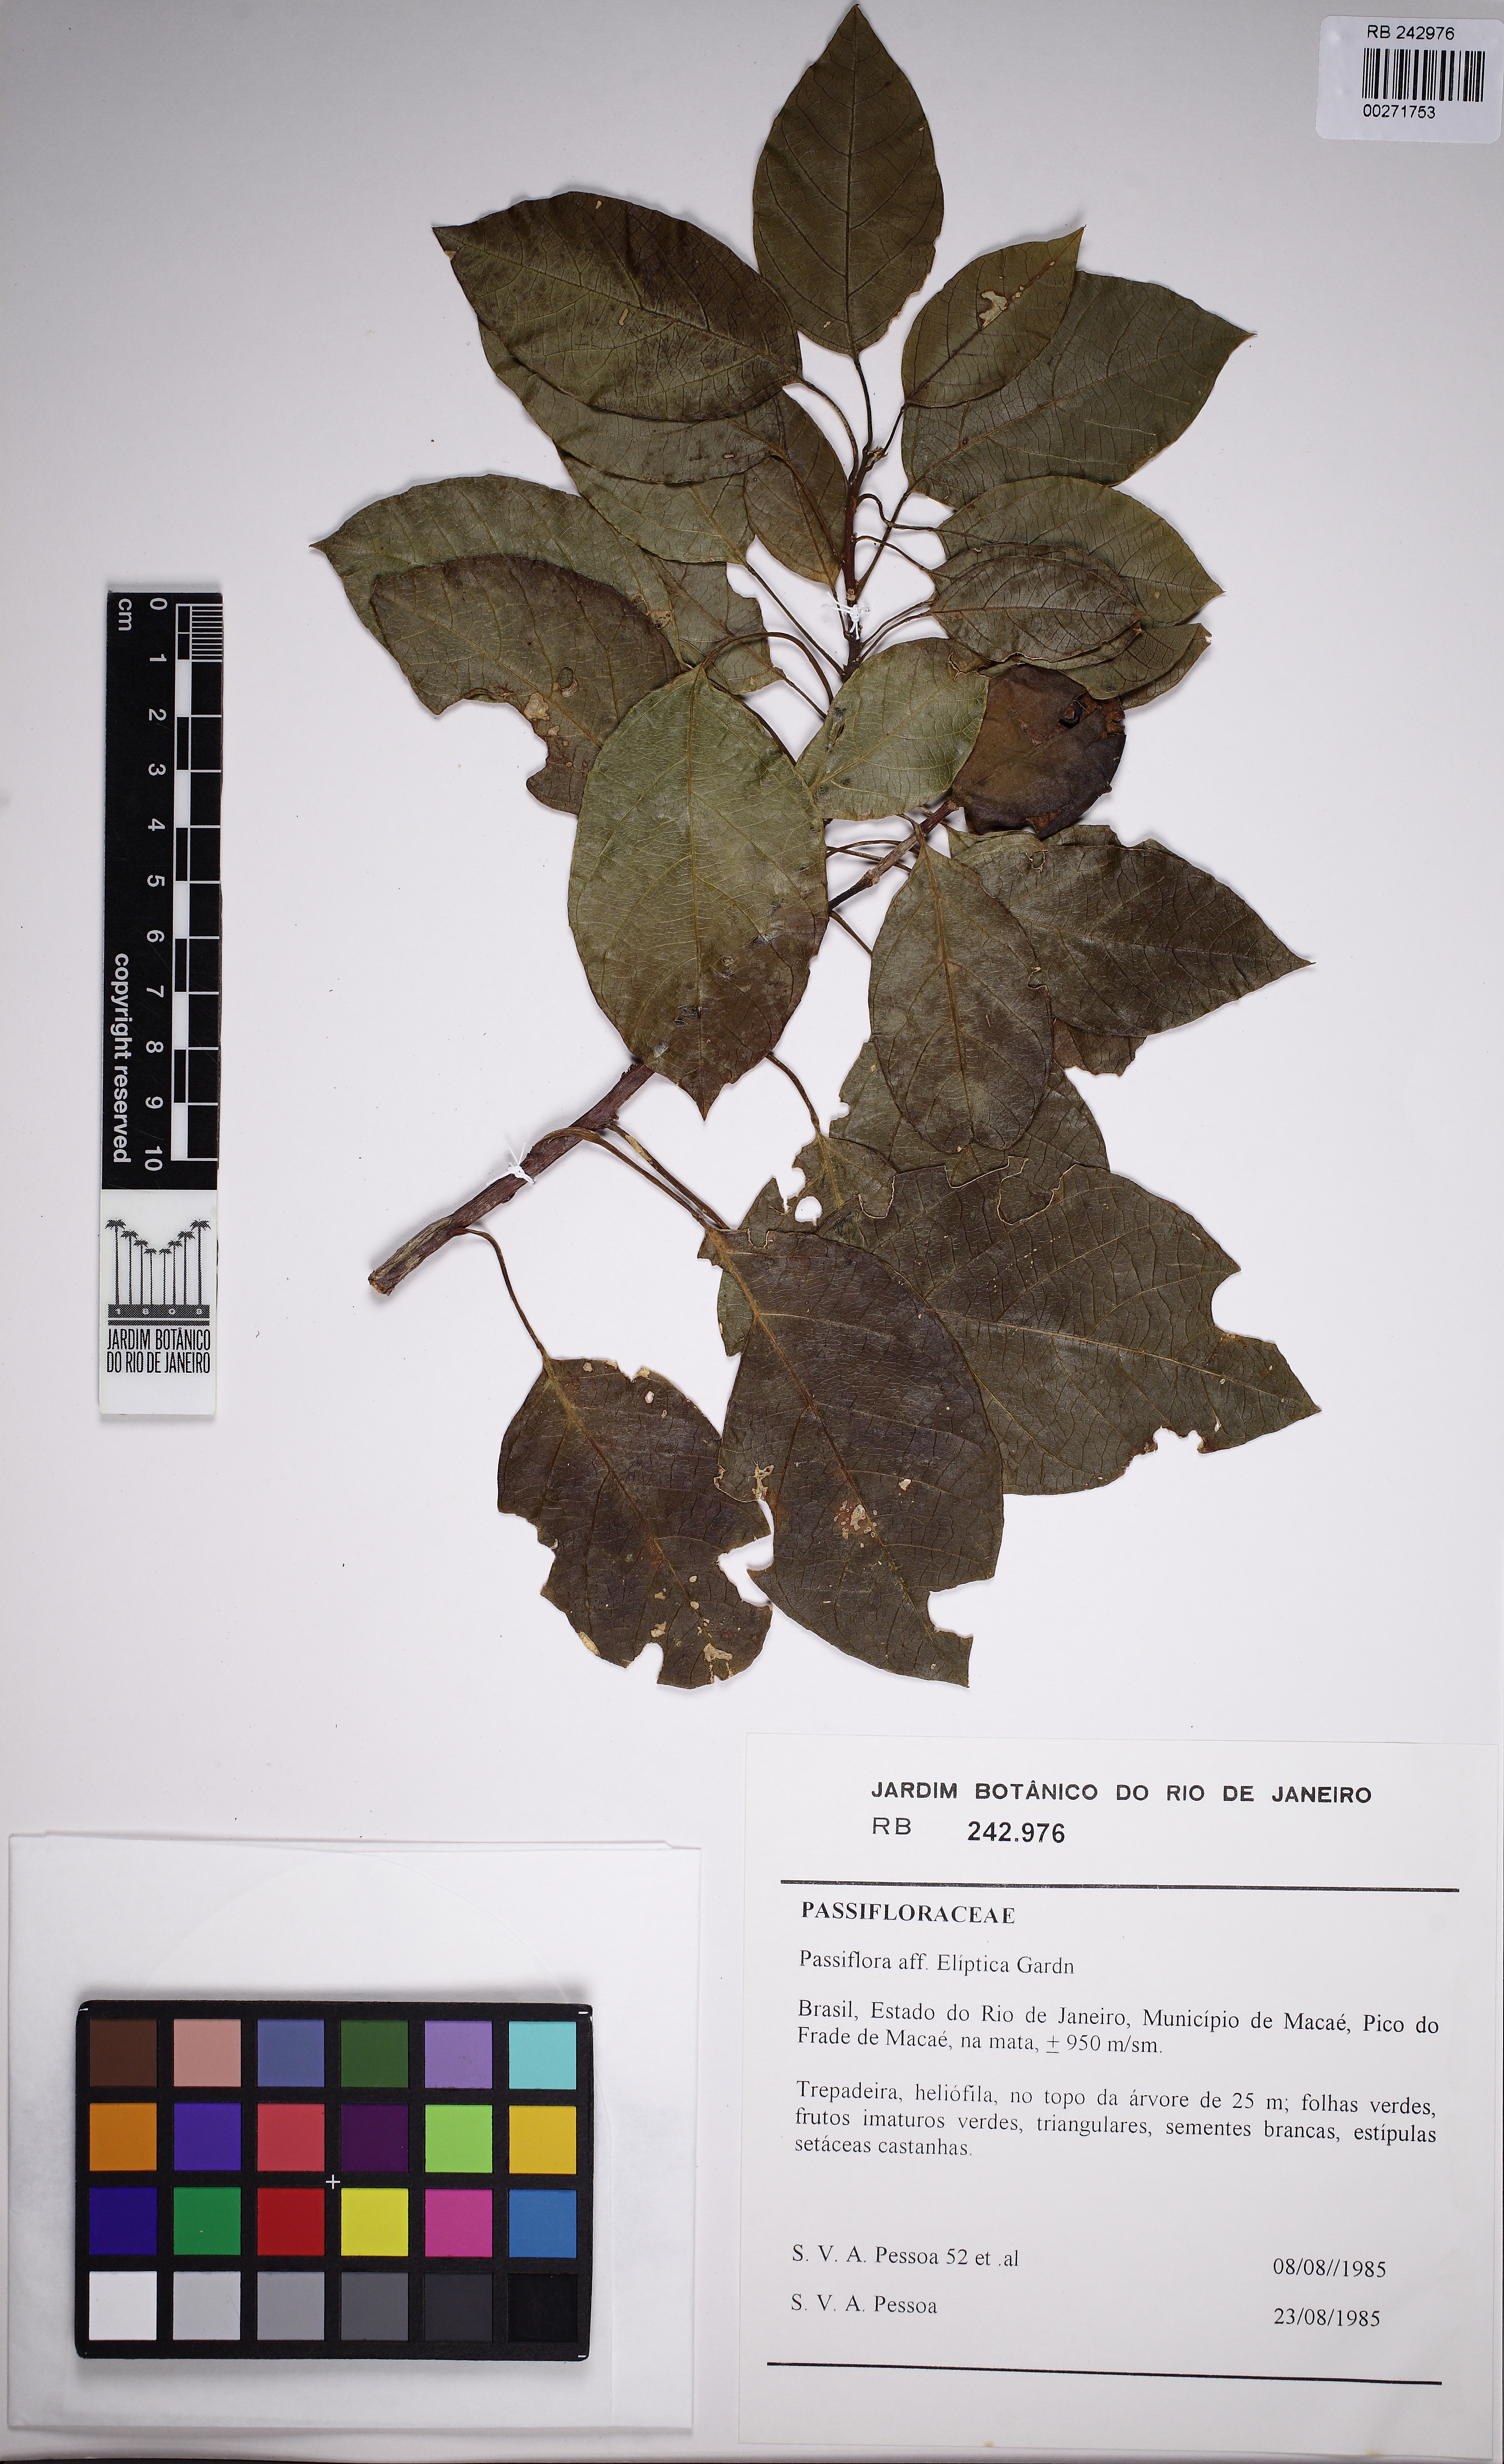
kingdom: Plantae
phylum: Tracheophyta
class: Magnoliopsida
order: Malpighiales
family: Passifloraceae
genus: Passiflora
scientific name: Passiflora rhamnifolia
